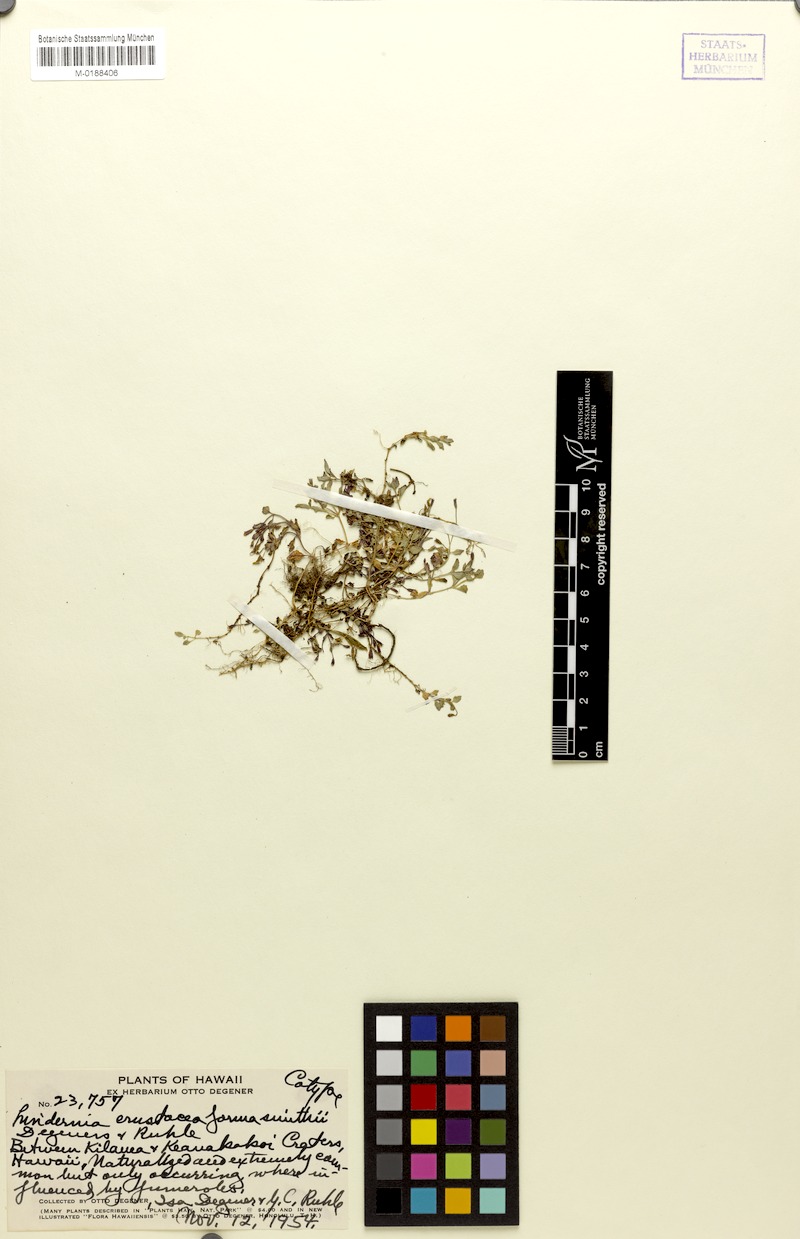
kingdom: Plantae
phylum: Tracheophyta
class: Magnoliopsida
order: Lamiales
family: Linderniaceae
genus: Torenia
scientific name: Torenia crustacea
